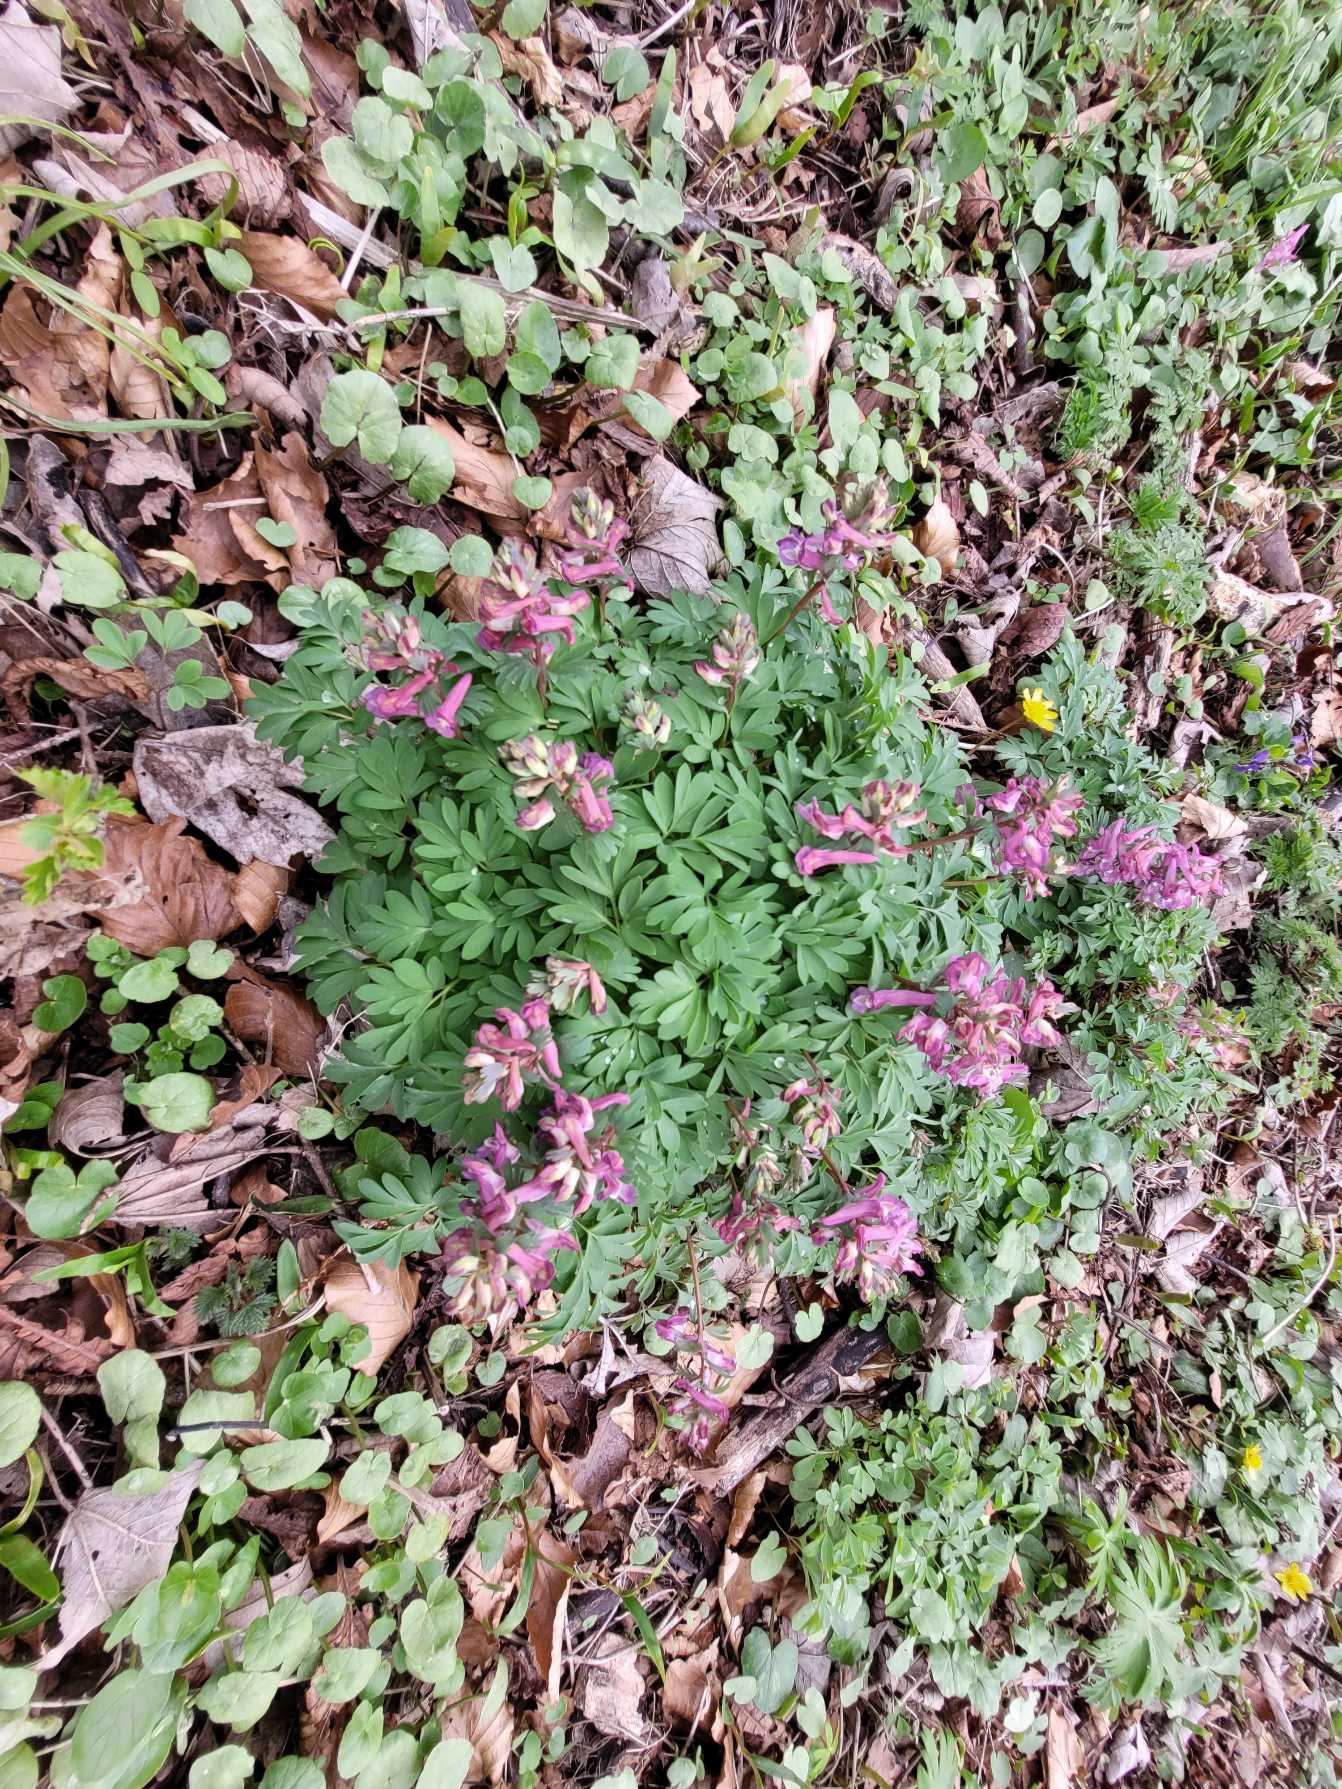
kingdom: Plantae
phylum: Tracheophyta
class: Magnoliopsida
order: Ranunculales
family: Papaveraceae
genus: Corydalis
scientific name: Corydalis solida
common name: Langstilket lærkespore
